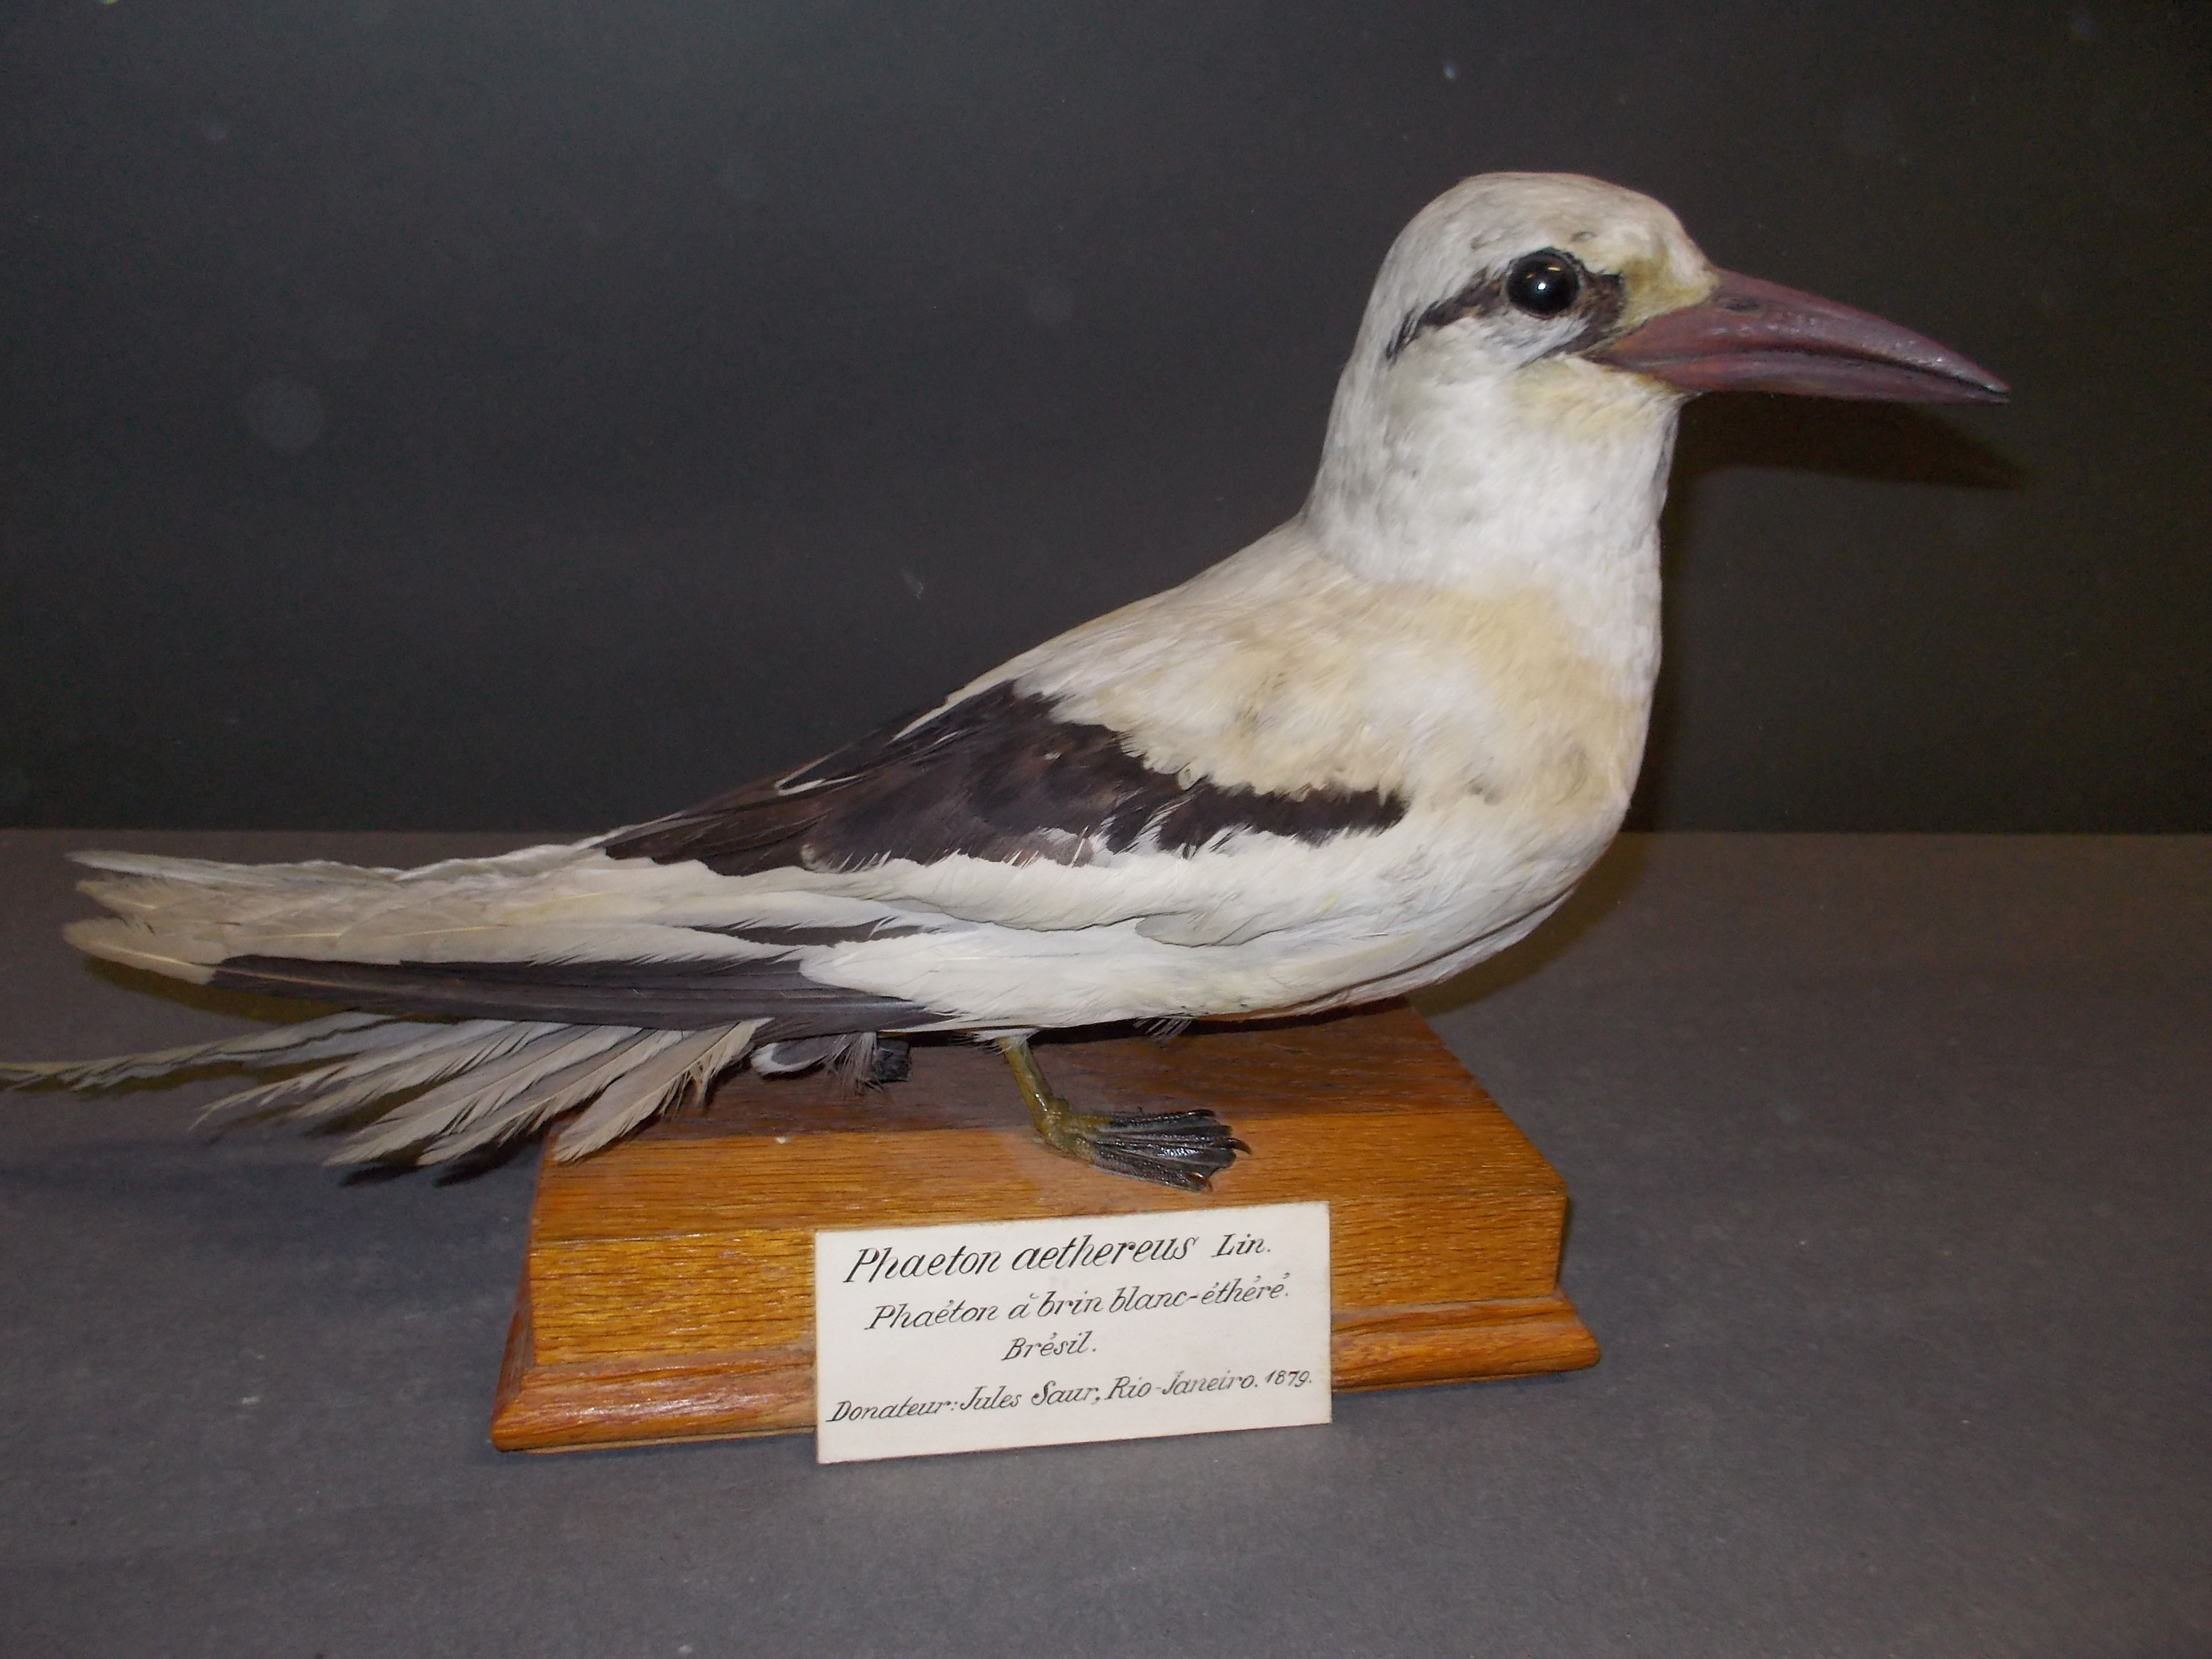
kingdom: Animalia
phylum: Chordata
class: Aves
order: Phaethontiformes
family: Phaethontidae
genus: Phaethon
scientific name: Phaethon lepturus
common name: White-tailed tropicbird
